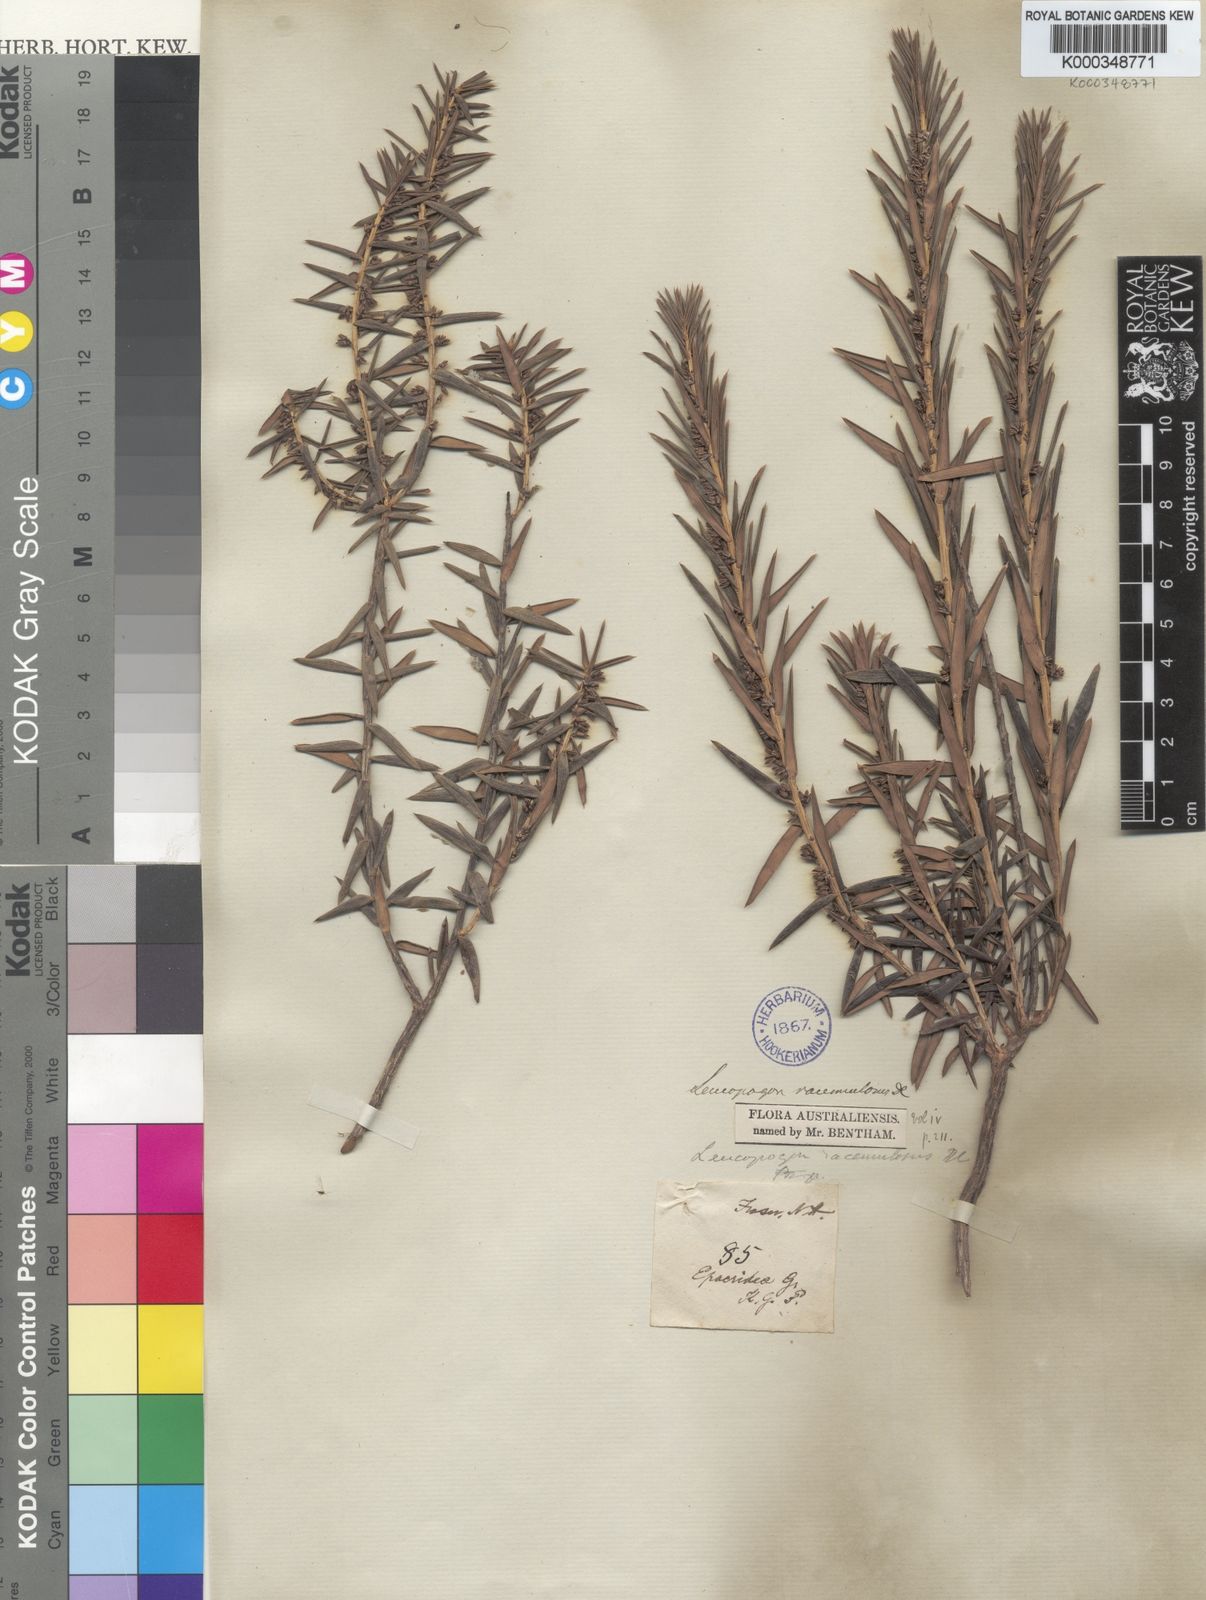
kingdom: Plantae
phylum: Tracheophyta
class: Magnoliopsida
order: Ericales
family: Ericaceae
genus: Styphelia
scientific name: Styphelia racemulosa
